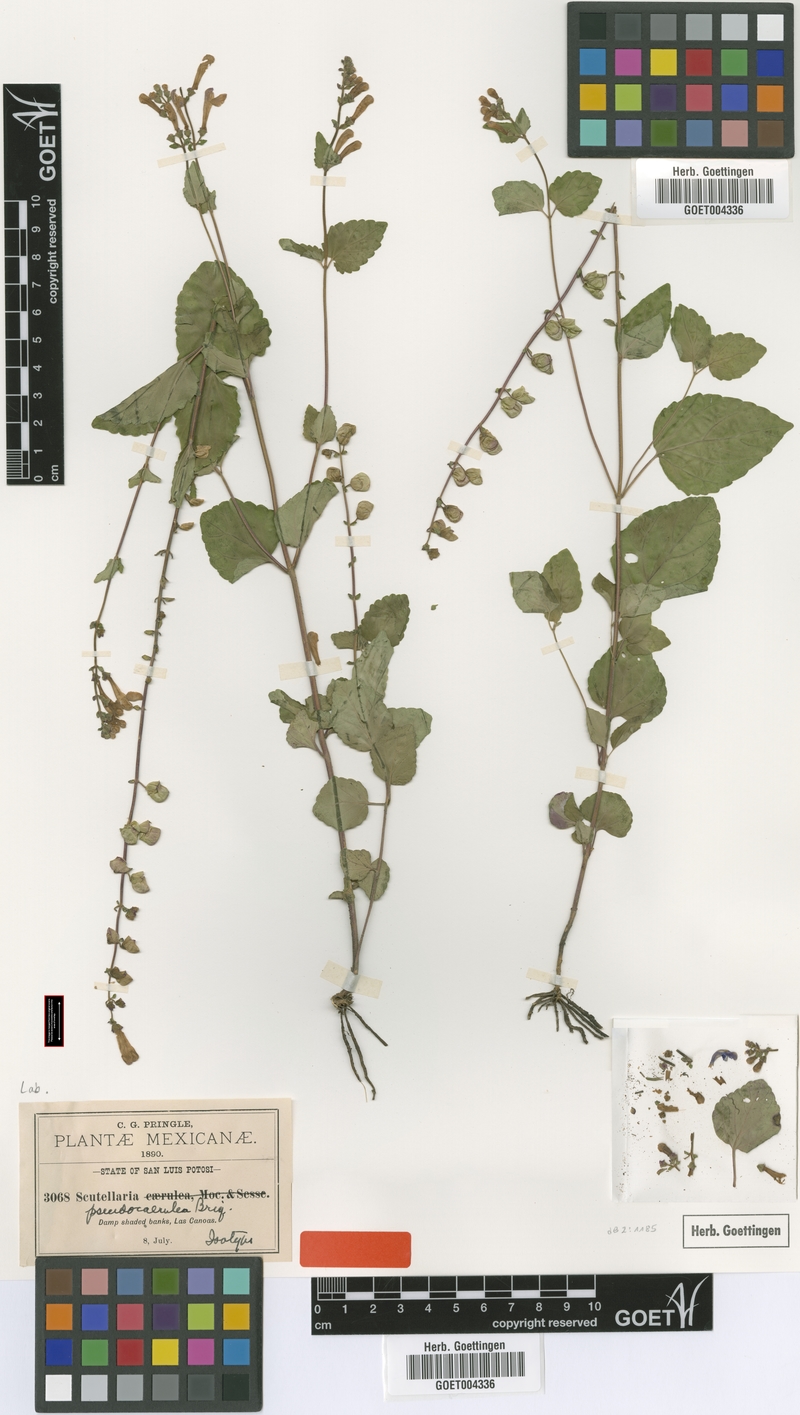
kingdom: Plantae
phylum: Tracheophyta
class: Magnoliopsida
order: Lamiales
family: Lamiaceae
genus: Scutellaria
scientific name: Scutellaria pseudocaerulea
